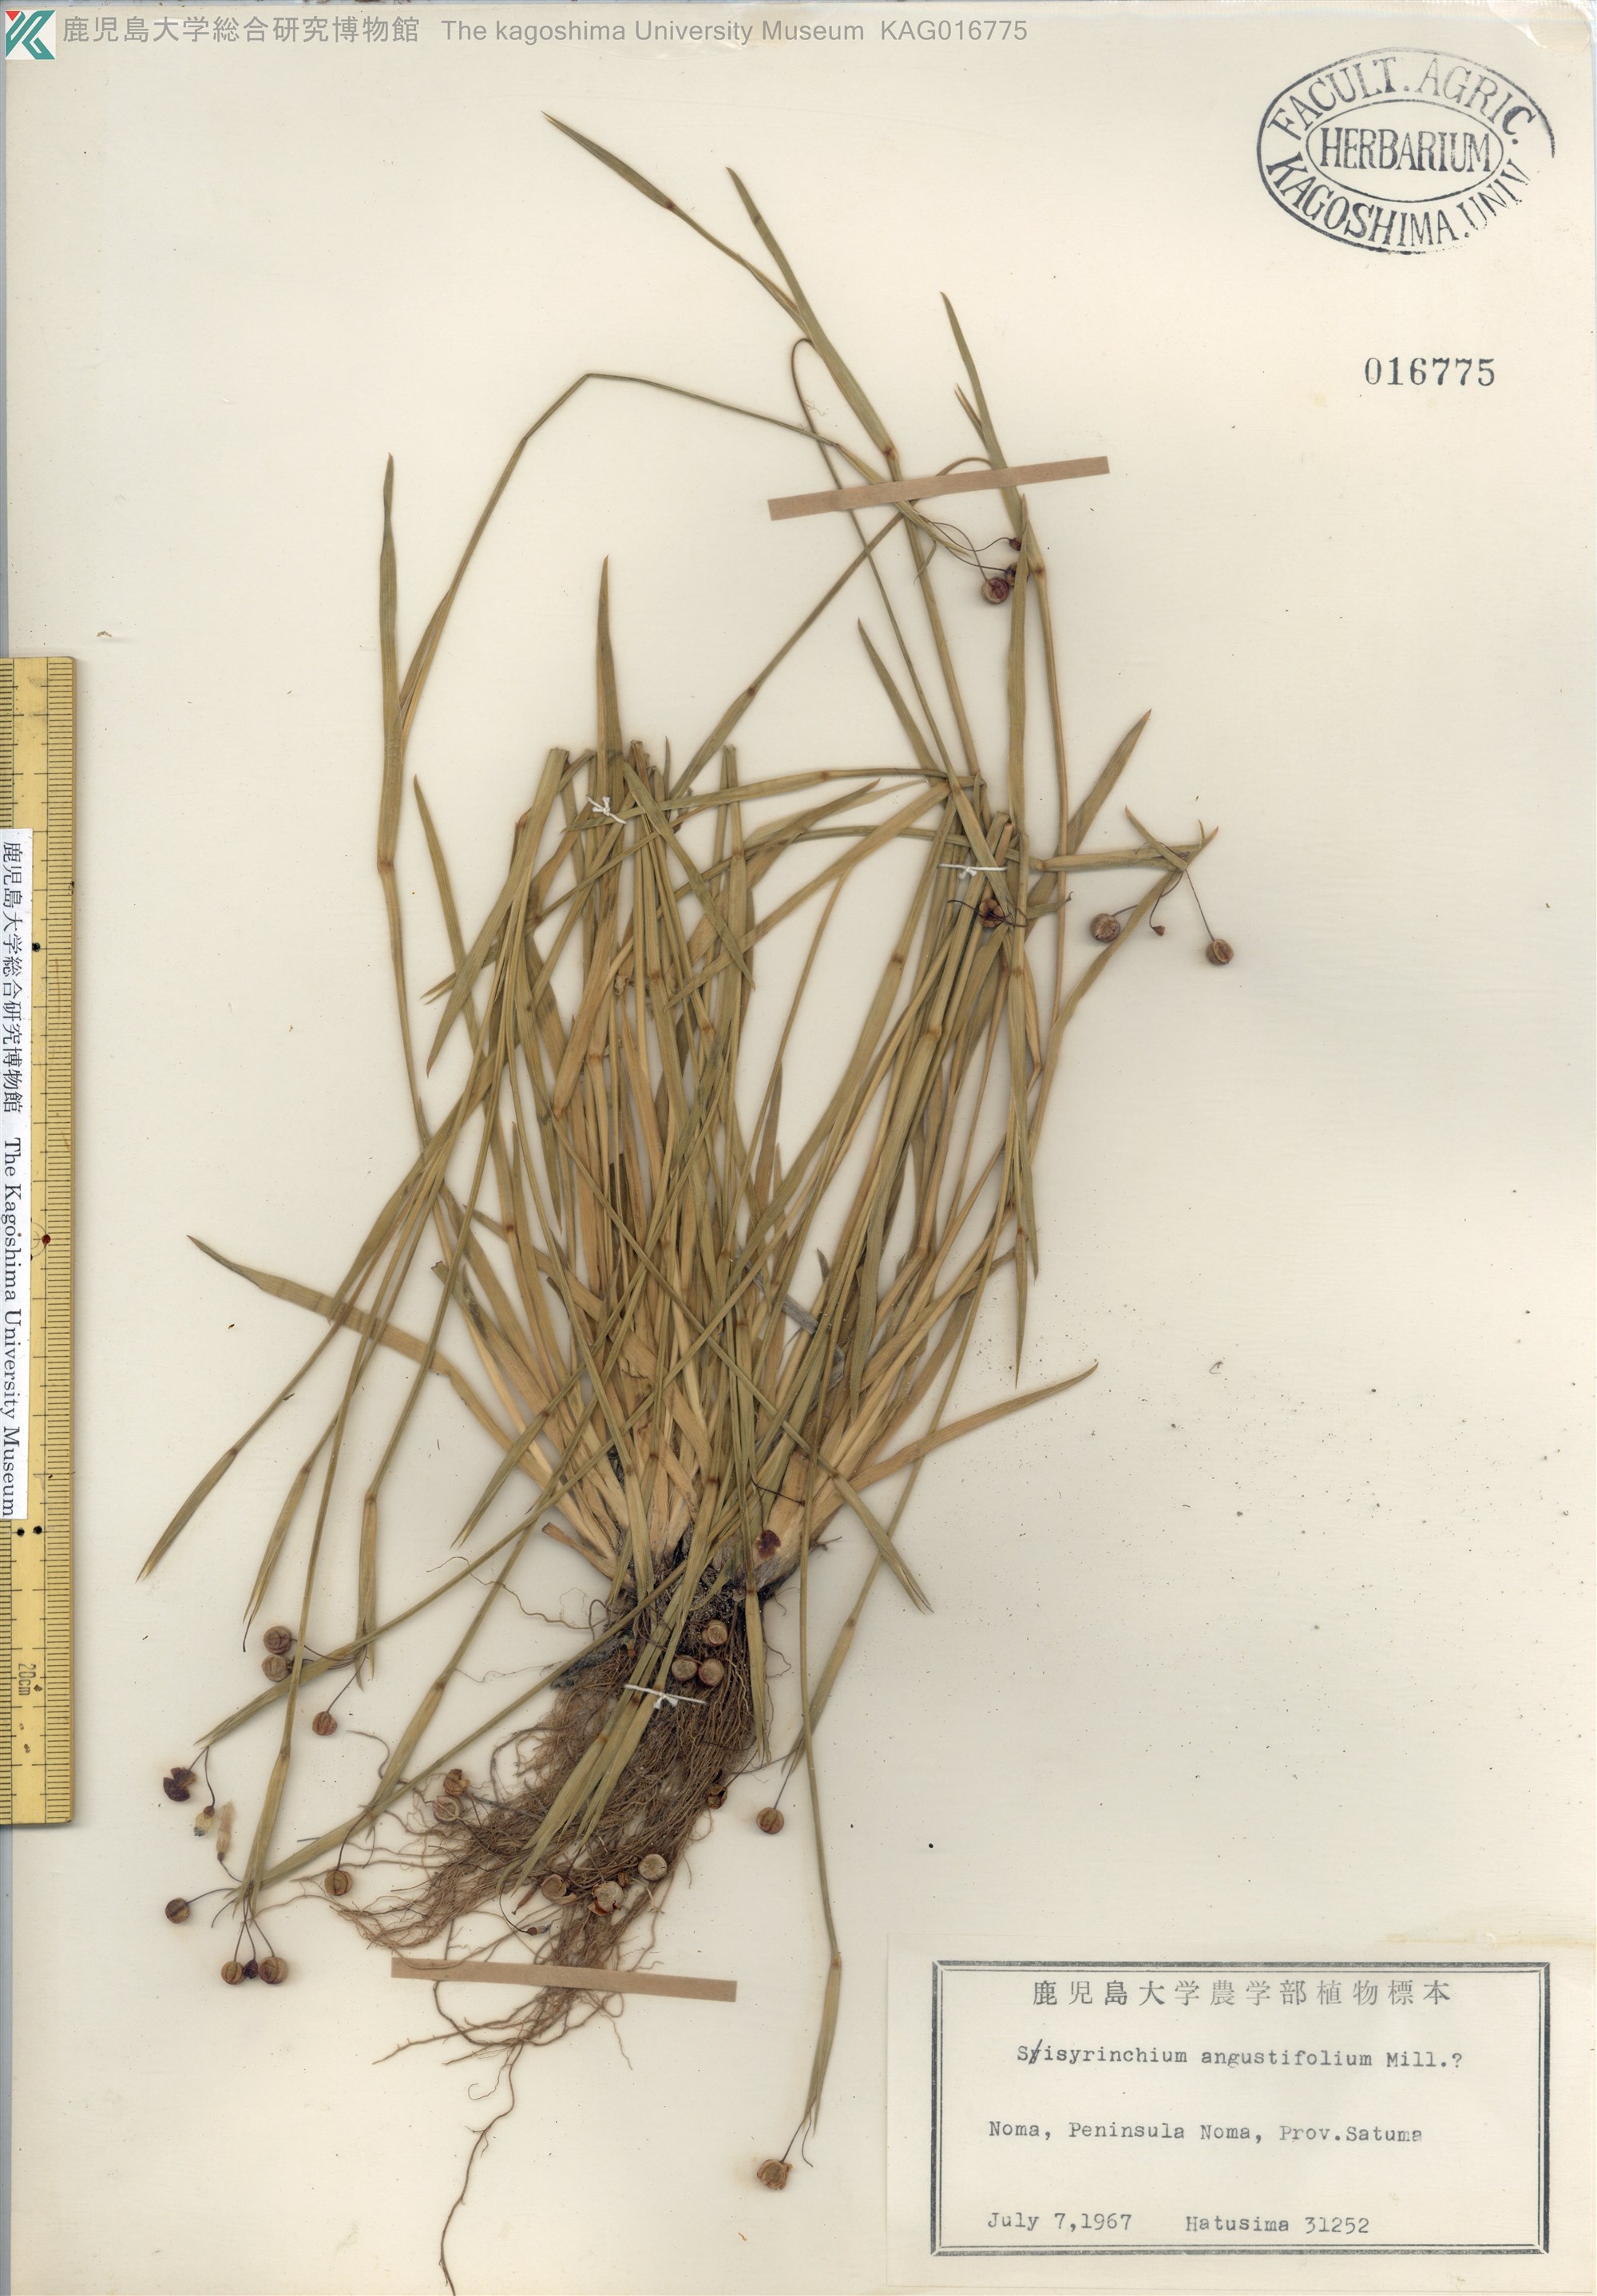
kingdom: Plantae
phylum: Tracheophyta
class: Liliopsida
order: Asparagales
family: Iridaceae
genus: Sisyrinchium
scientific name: Sisyrinchium micranthum
